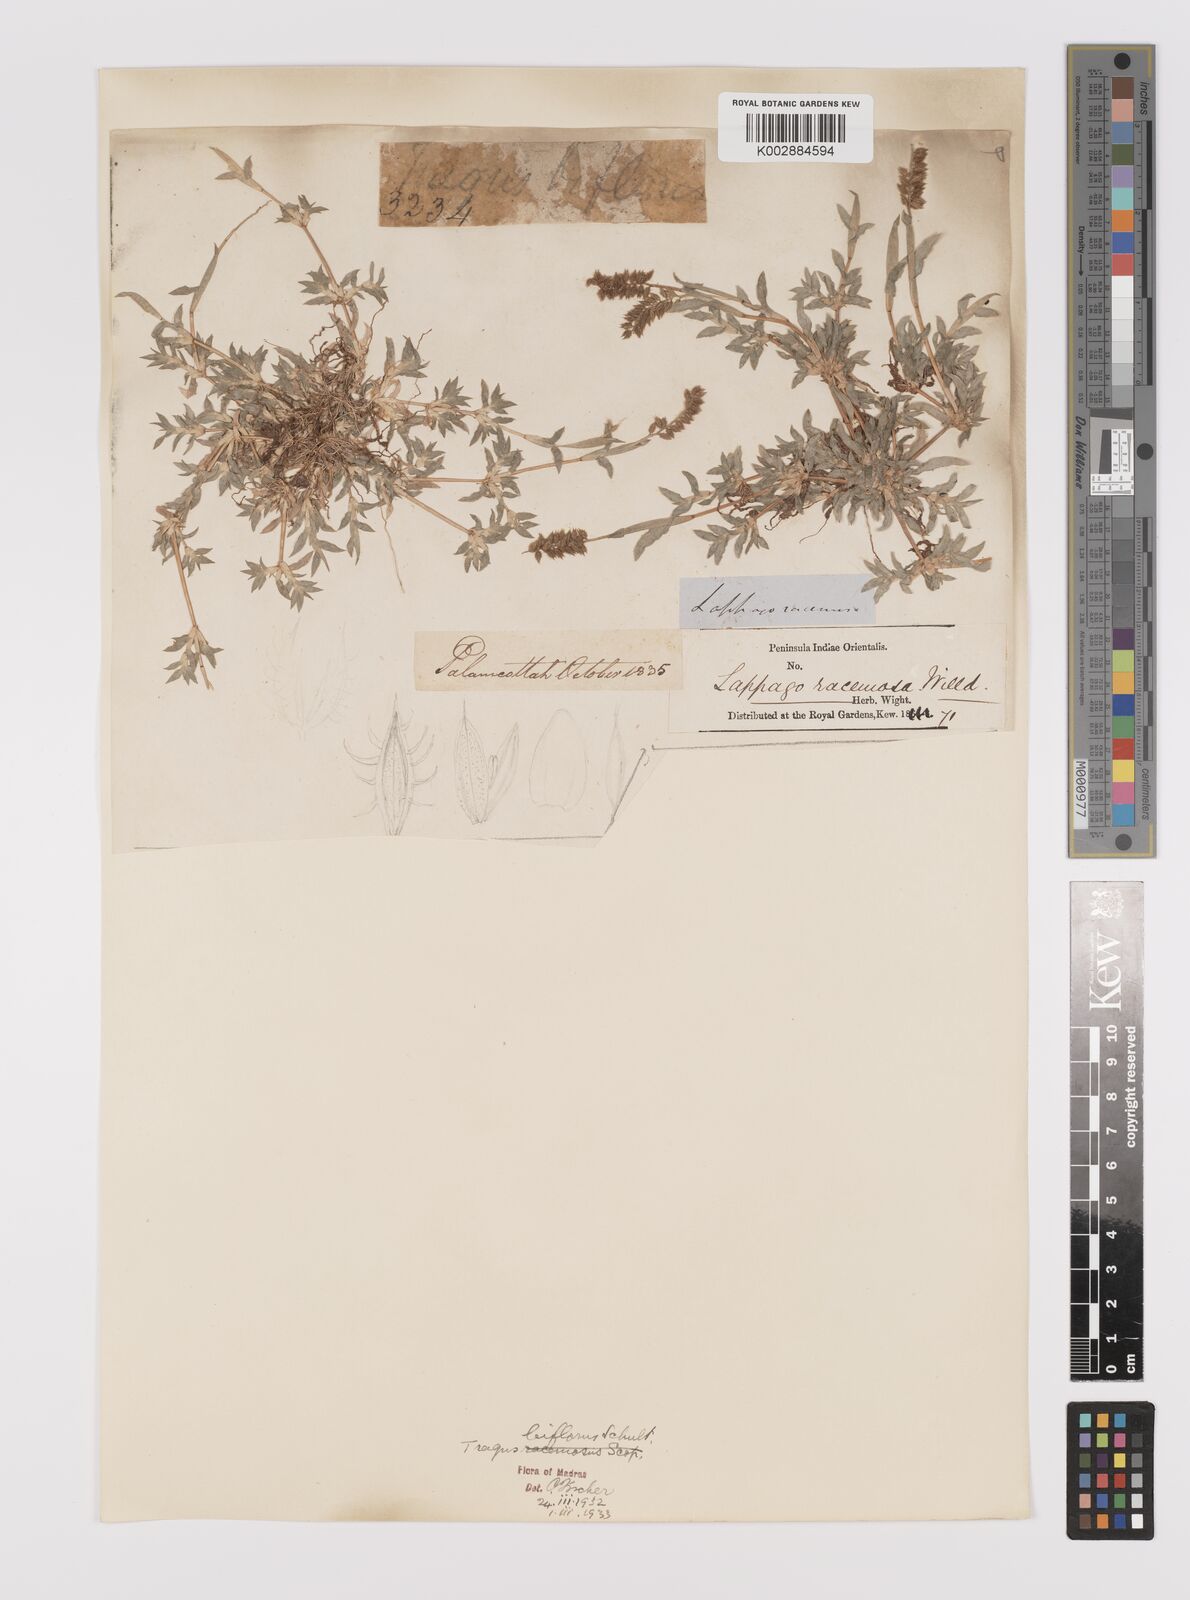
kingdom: Plantae
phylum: Tracheophyta
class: Liliopsida
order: Poales
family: Poaceae
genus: Tragus
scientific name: Tragus mongolorum
